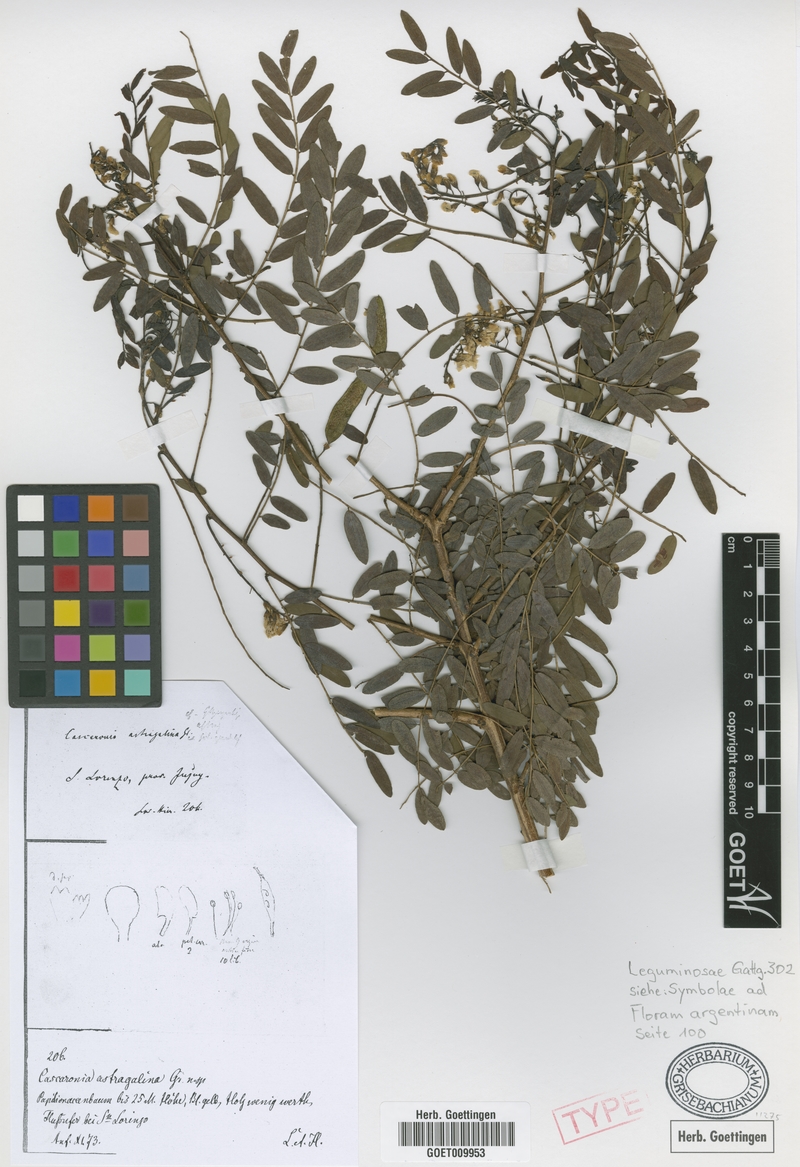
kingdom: Plantae
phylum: Tracheophyta
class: Magnoliopsida
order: Fabales
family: Fabaceae
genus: Cascaronia
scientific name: Cascaronia astragalina
